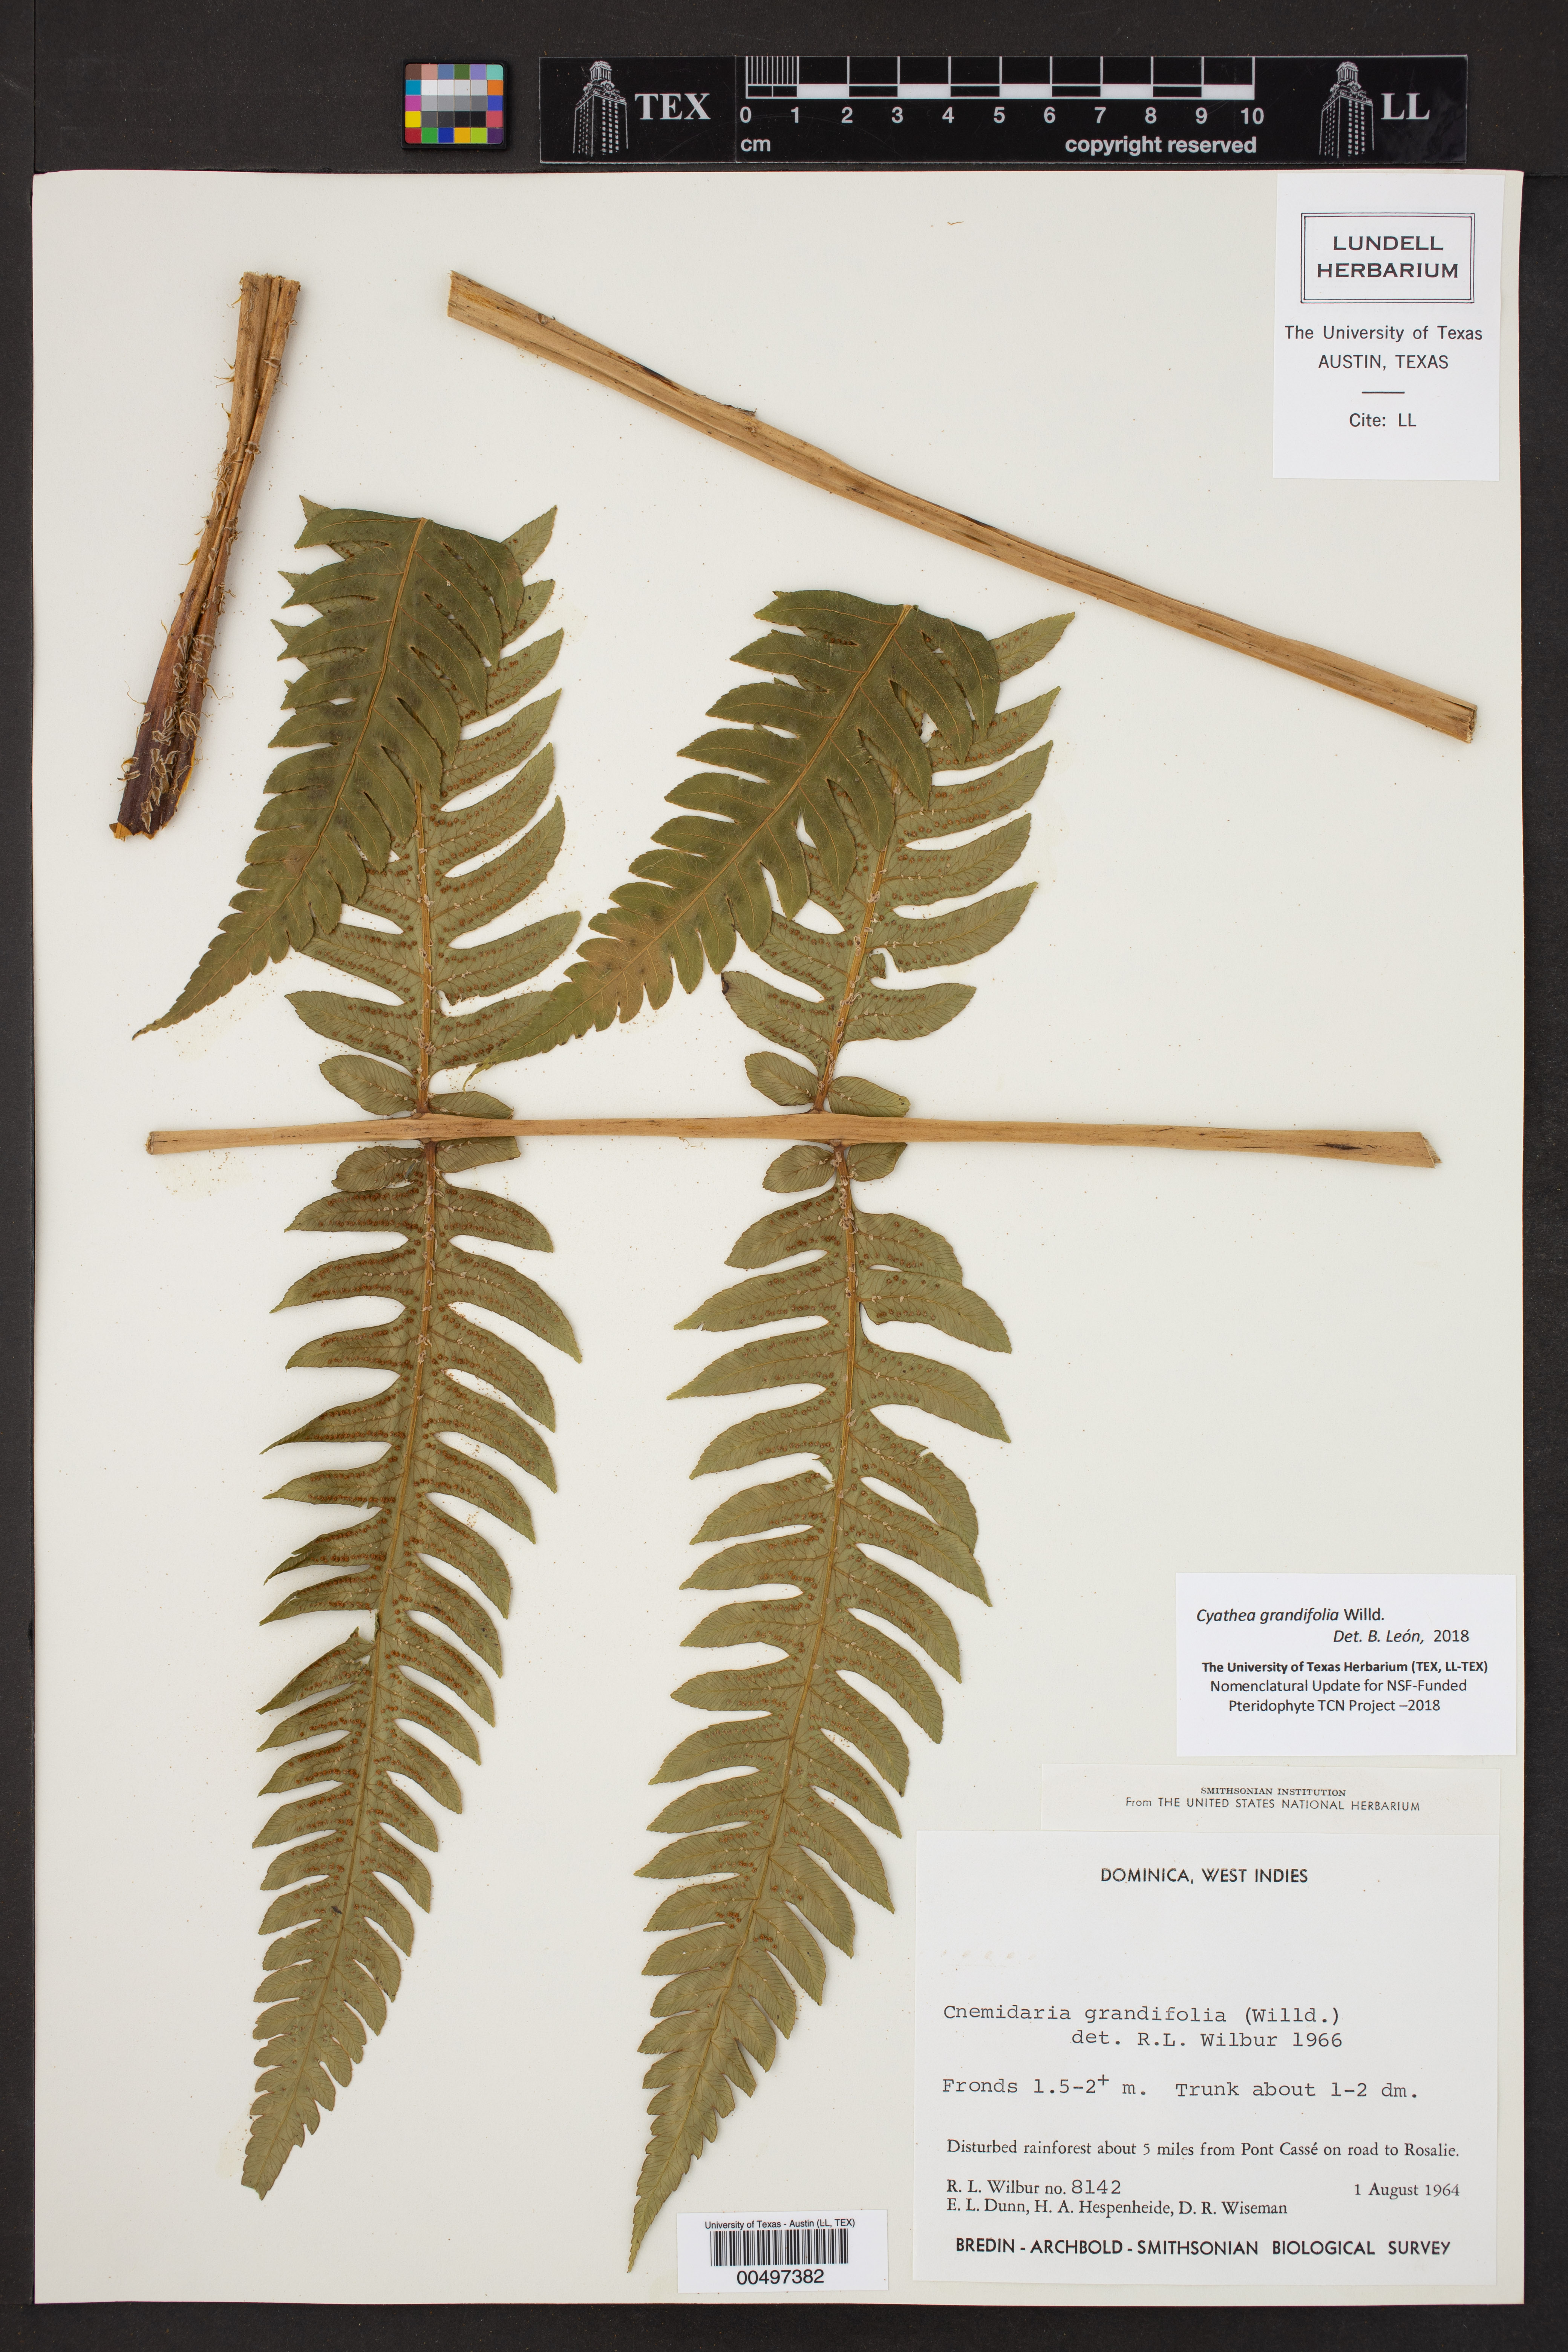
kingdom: Plantae
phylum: Tracheophyta
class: Polypodiopsida
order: Cyatheales
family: Cyatheaceae
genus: Cyathea
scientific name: Cyathea grandifolia
